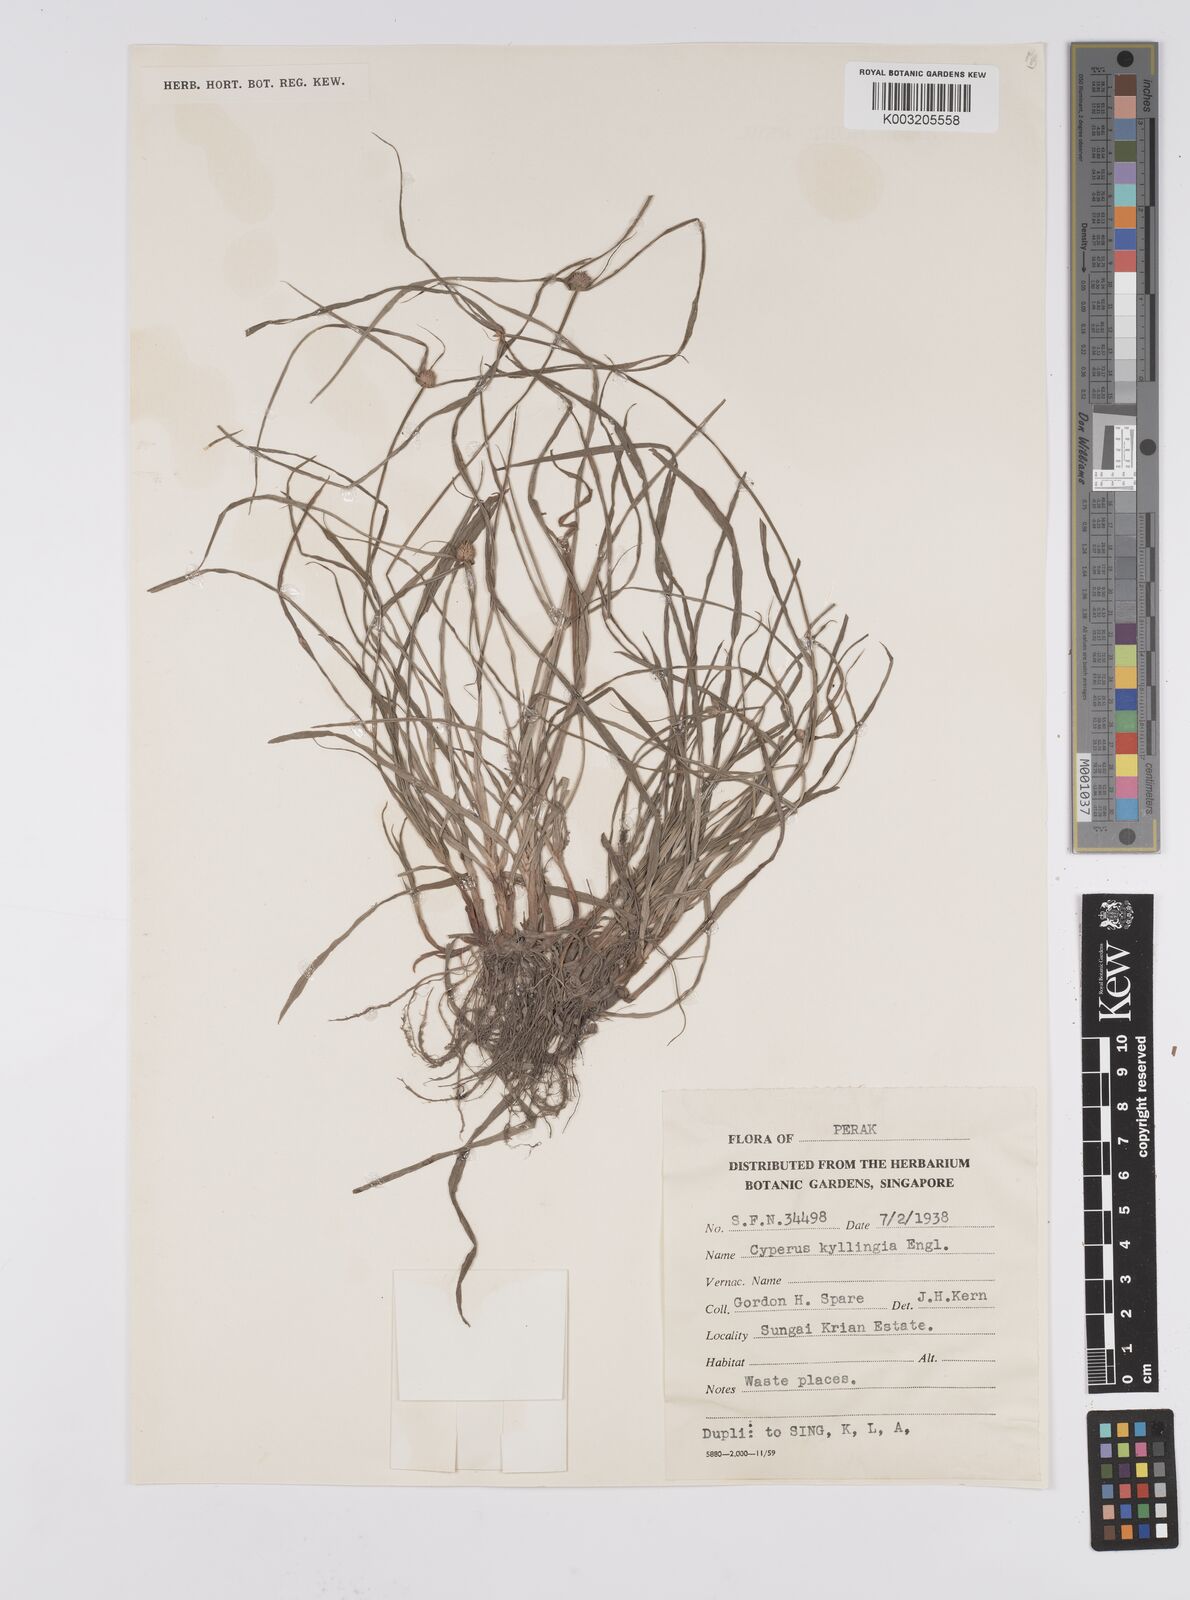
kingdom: Plantae
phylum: Tracheophyta
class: Liliopsida
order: Poales
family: Cyperaceae
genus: Cyperus
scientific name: Cyperus nemoralis
